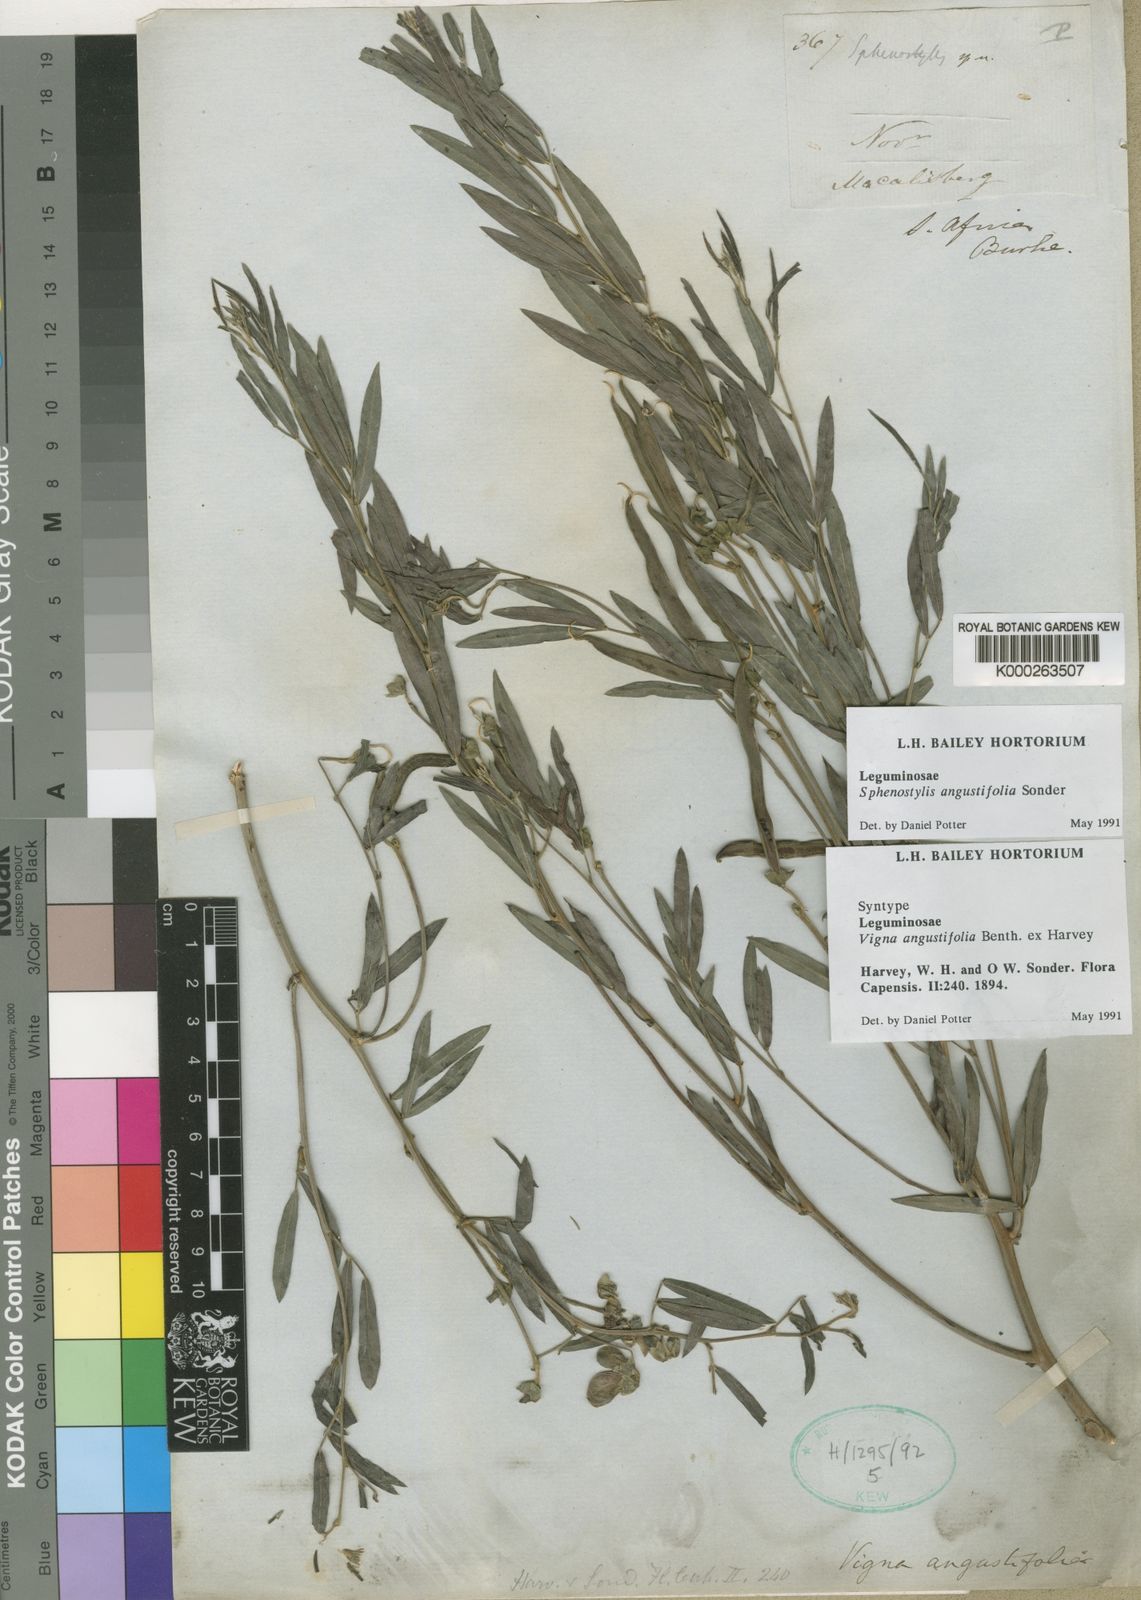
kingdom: Plantae
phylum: Tracheophyta
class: Magnoliopsida
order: Fabales
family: Fabaceae
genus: Sphenostylis
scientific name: Sphenostylis angustifolia
